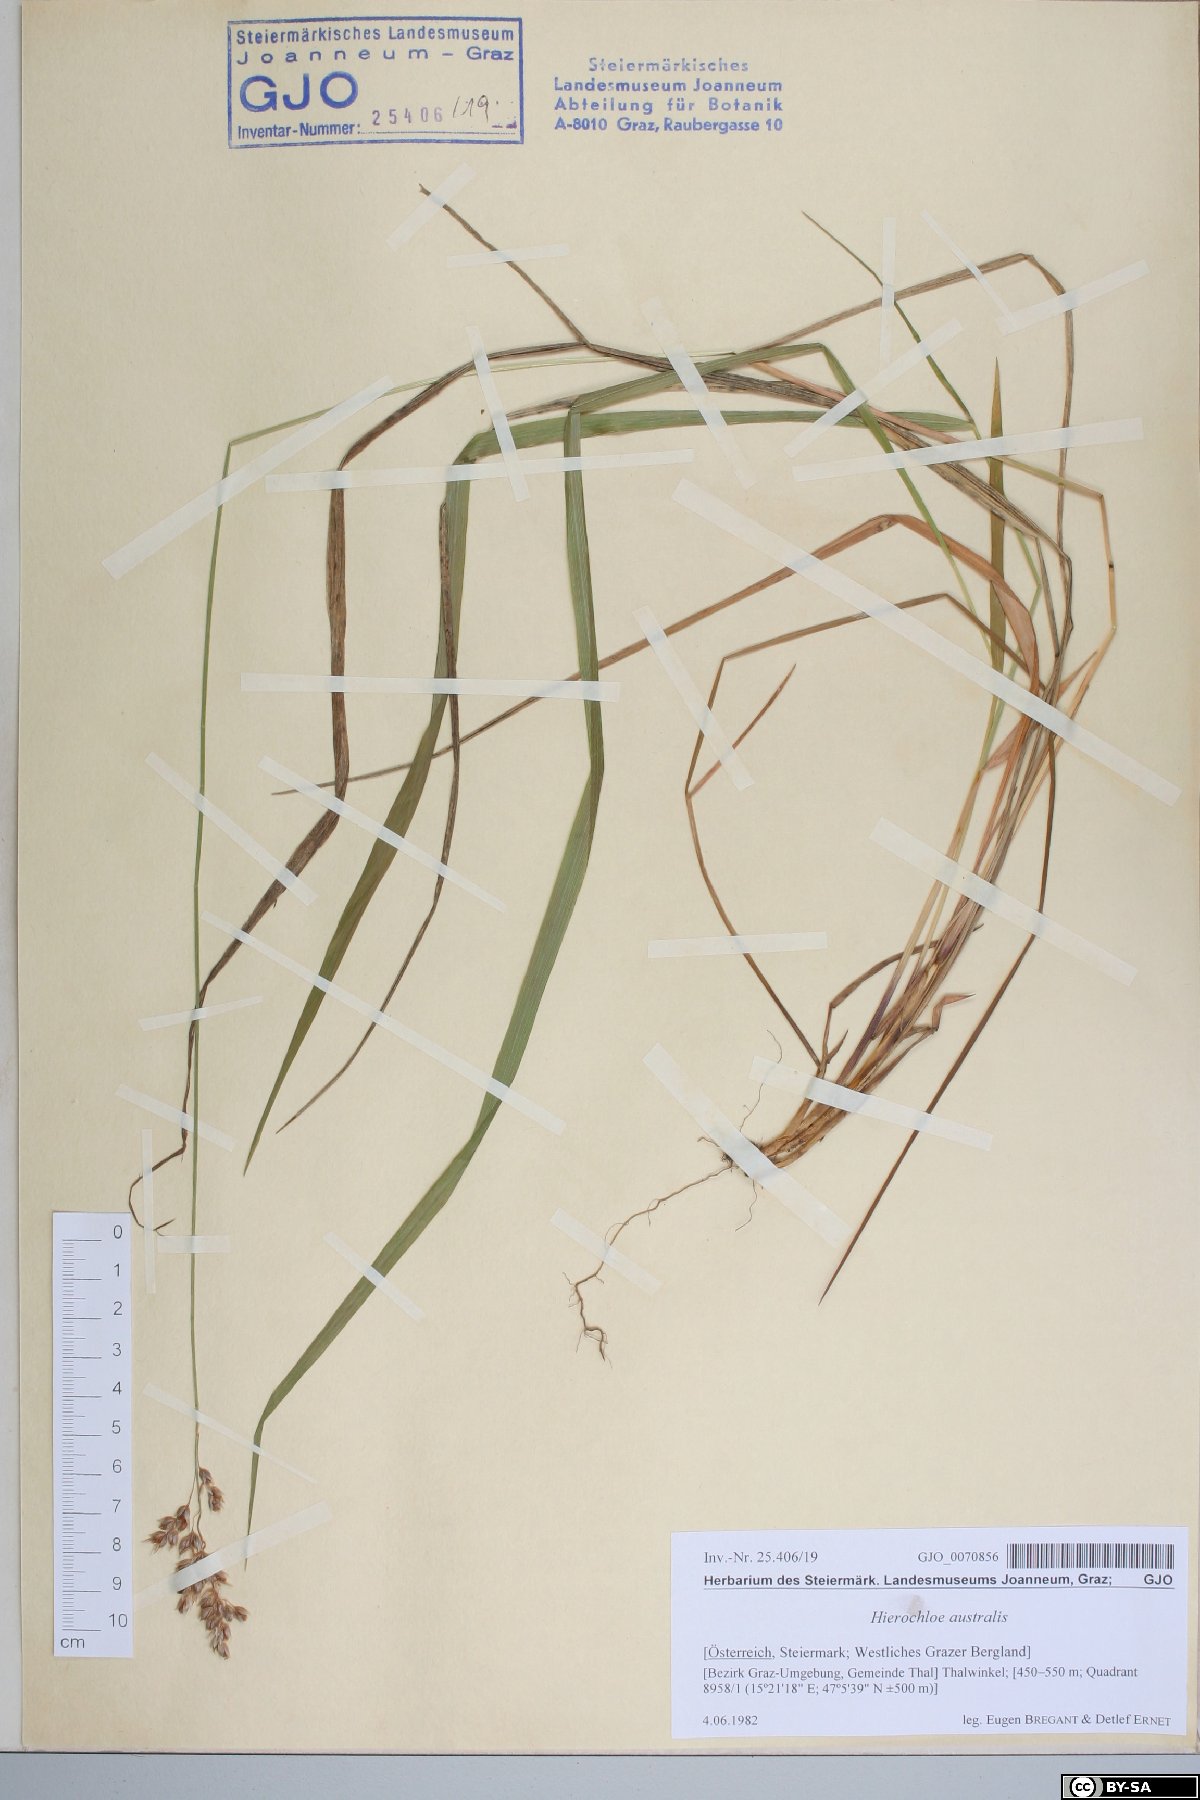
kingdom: Plantae
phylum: Tracheophyta
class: Liliopsida
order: Poales
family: Poaceae
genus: Anthoxanthum
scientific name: Anthoxanthum australe
